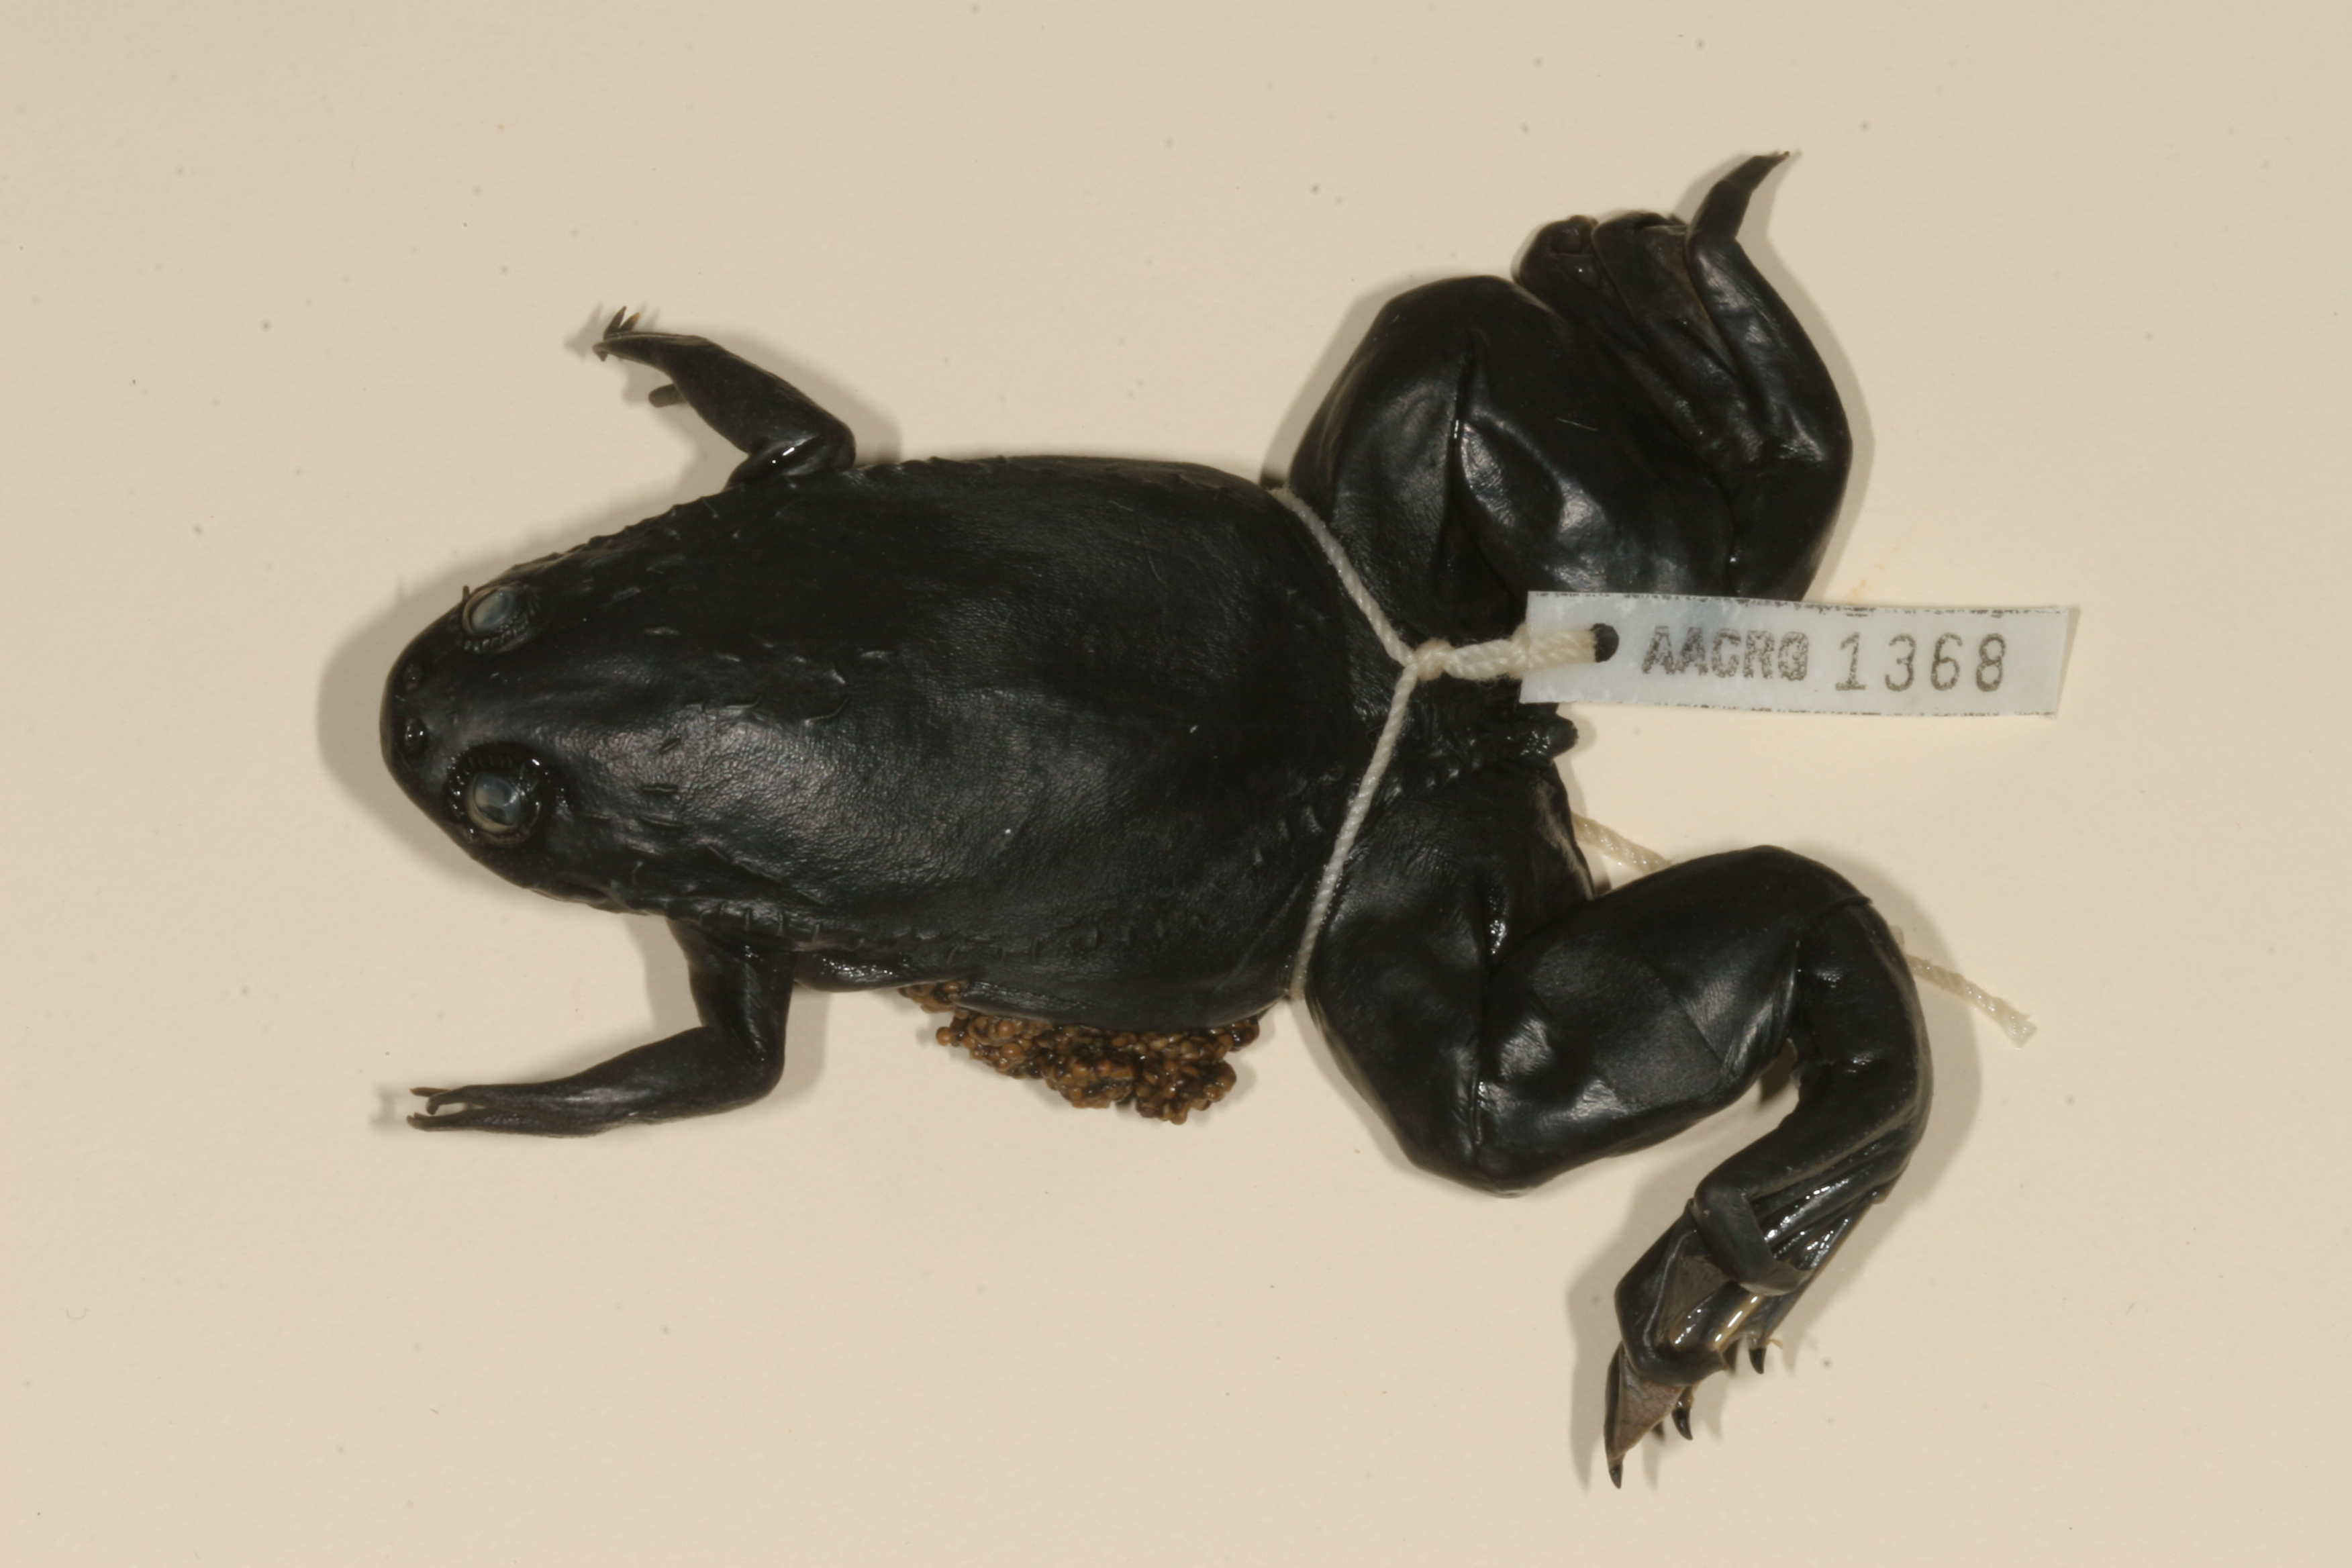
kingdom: Animalia
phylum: Chordata
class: Amphibia
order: Anura
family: Pipidae
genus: Xenopus
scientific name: Xenopus laevis
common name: African clawed frog
